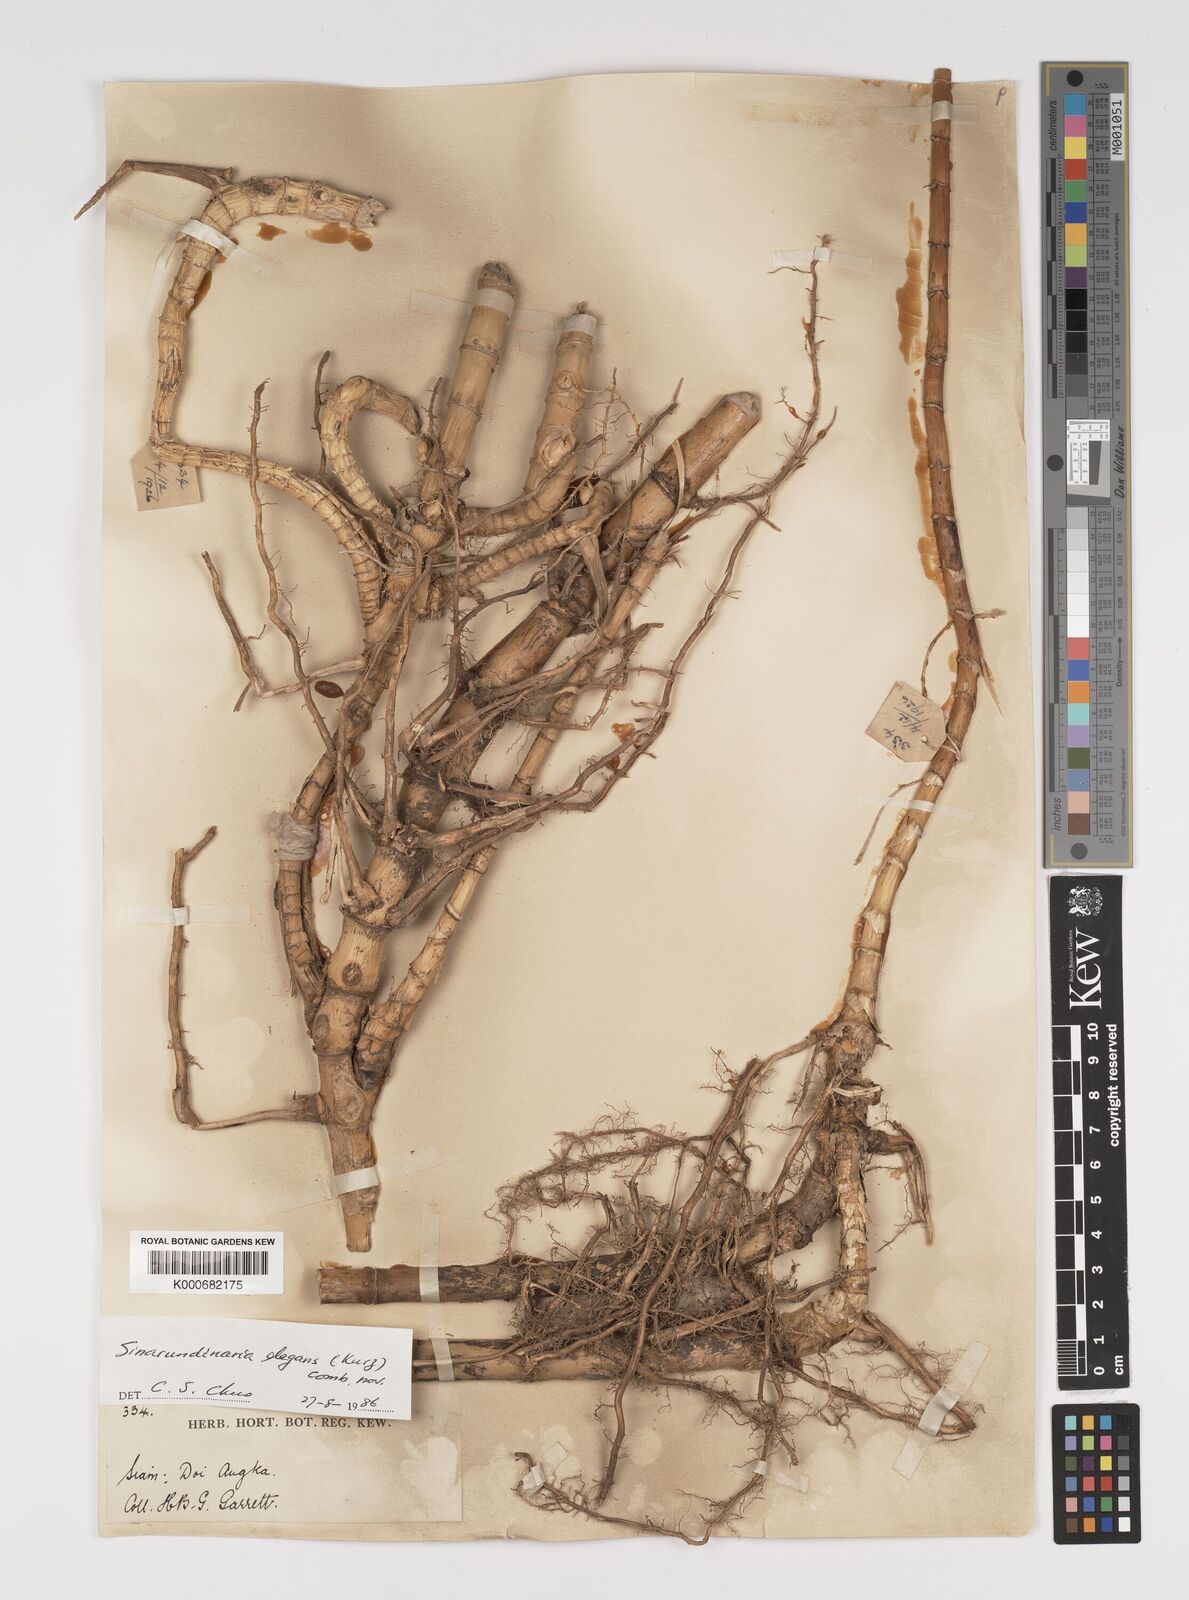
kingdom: Plantae
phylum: Tracheophyta
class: Liliopsida
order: Poales
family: Poaceae
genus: Yushania
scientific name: Yushania schmidiana
